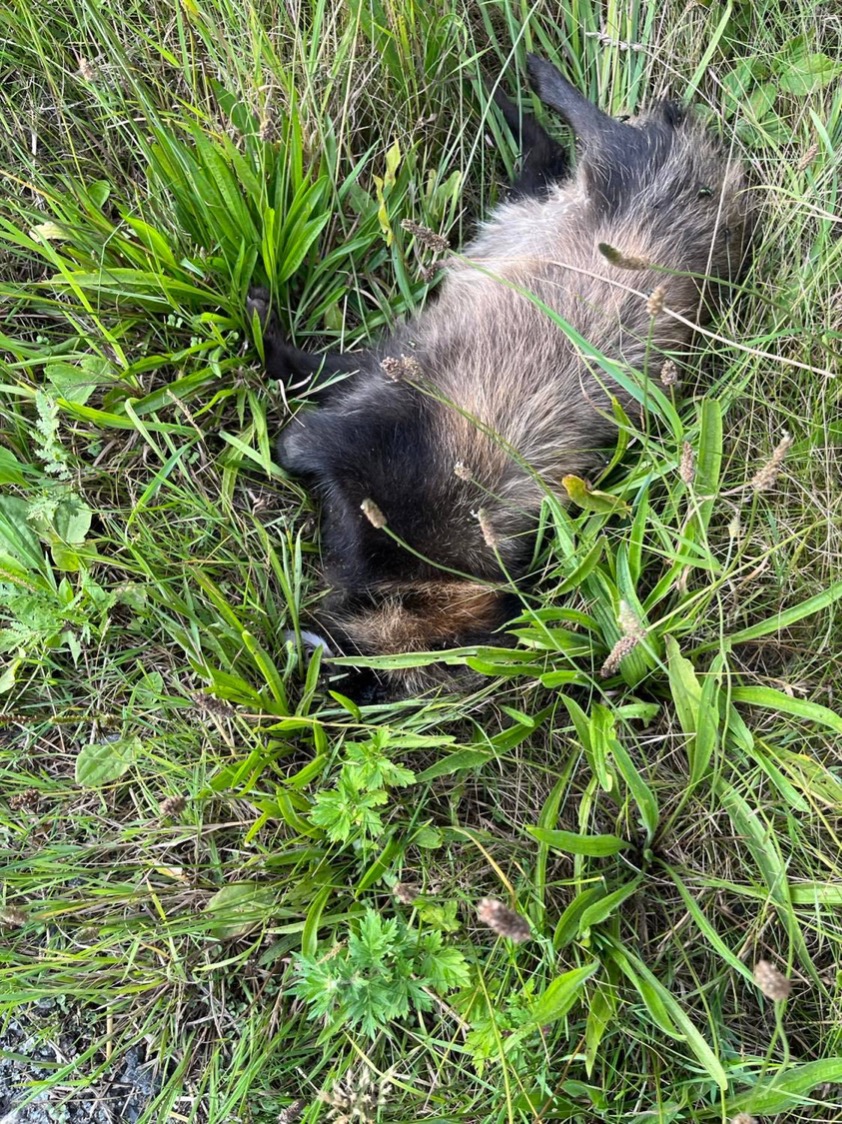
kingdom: Animalia
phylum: Chordata
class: Mammalia
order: Carnivora
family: Canidae
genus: Nyctereutes
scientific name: Nyctereutes procyonoides
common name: Mårhund
